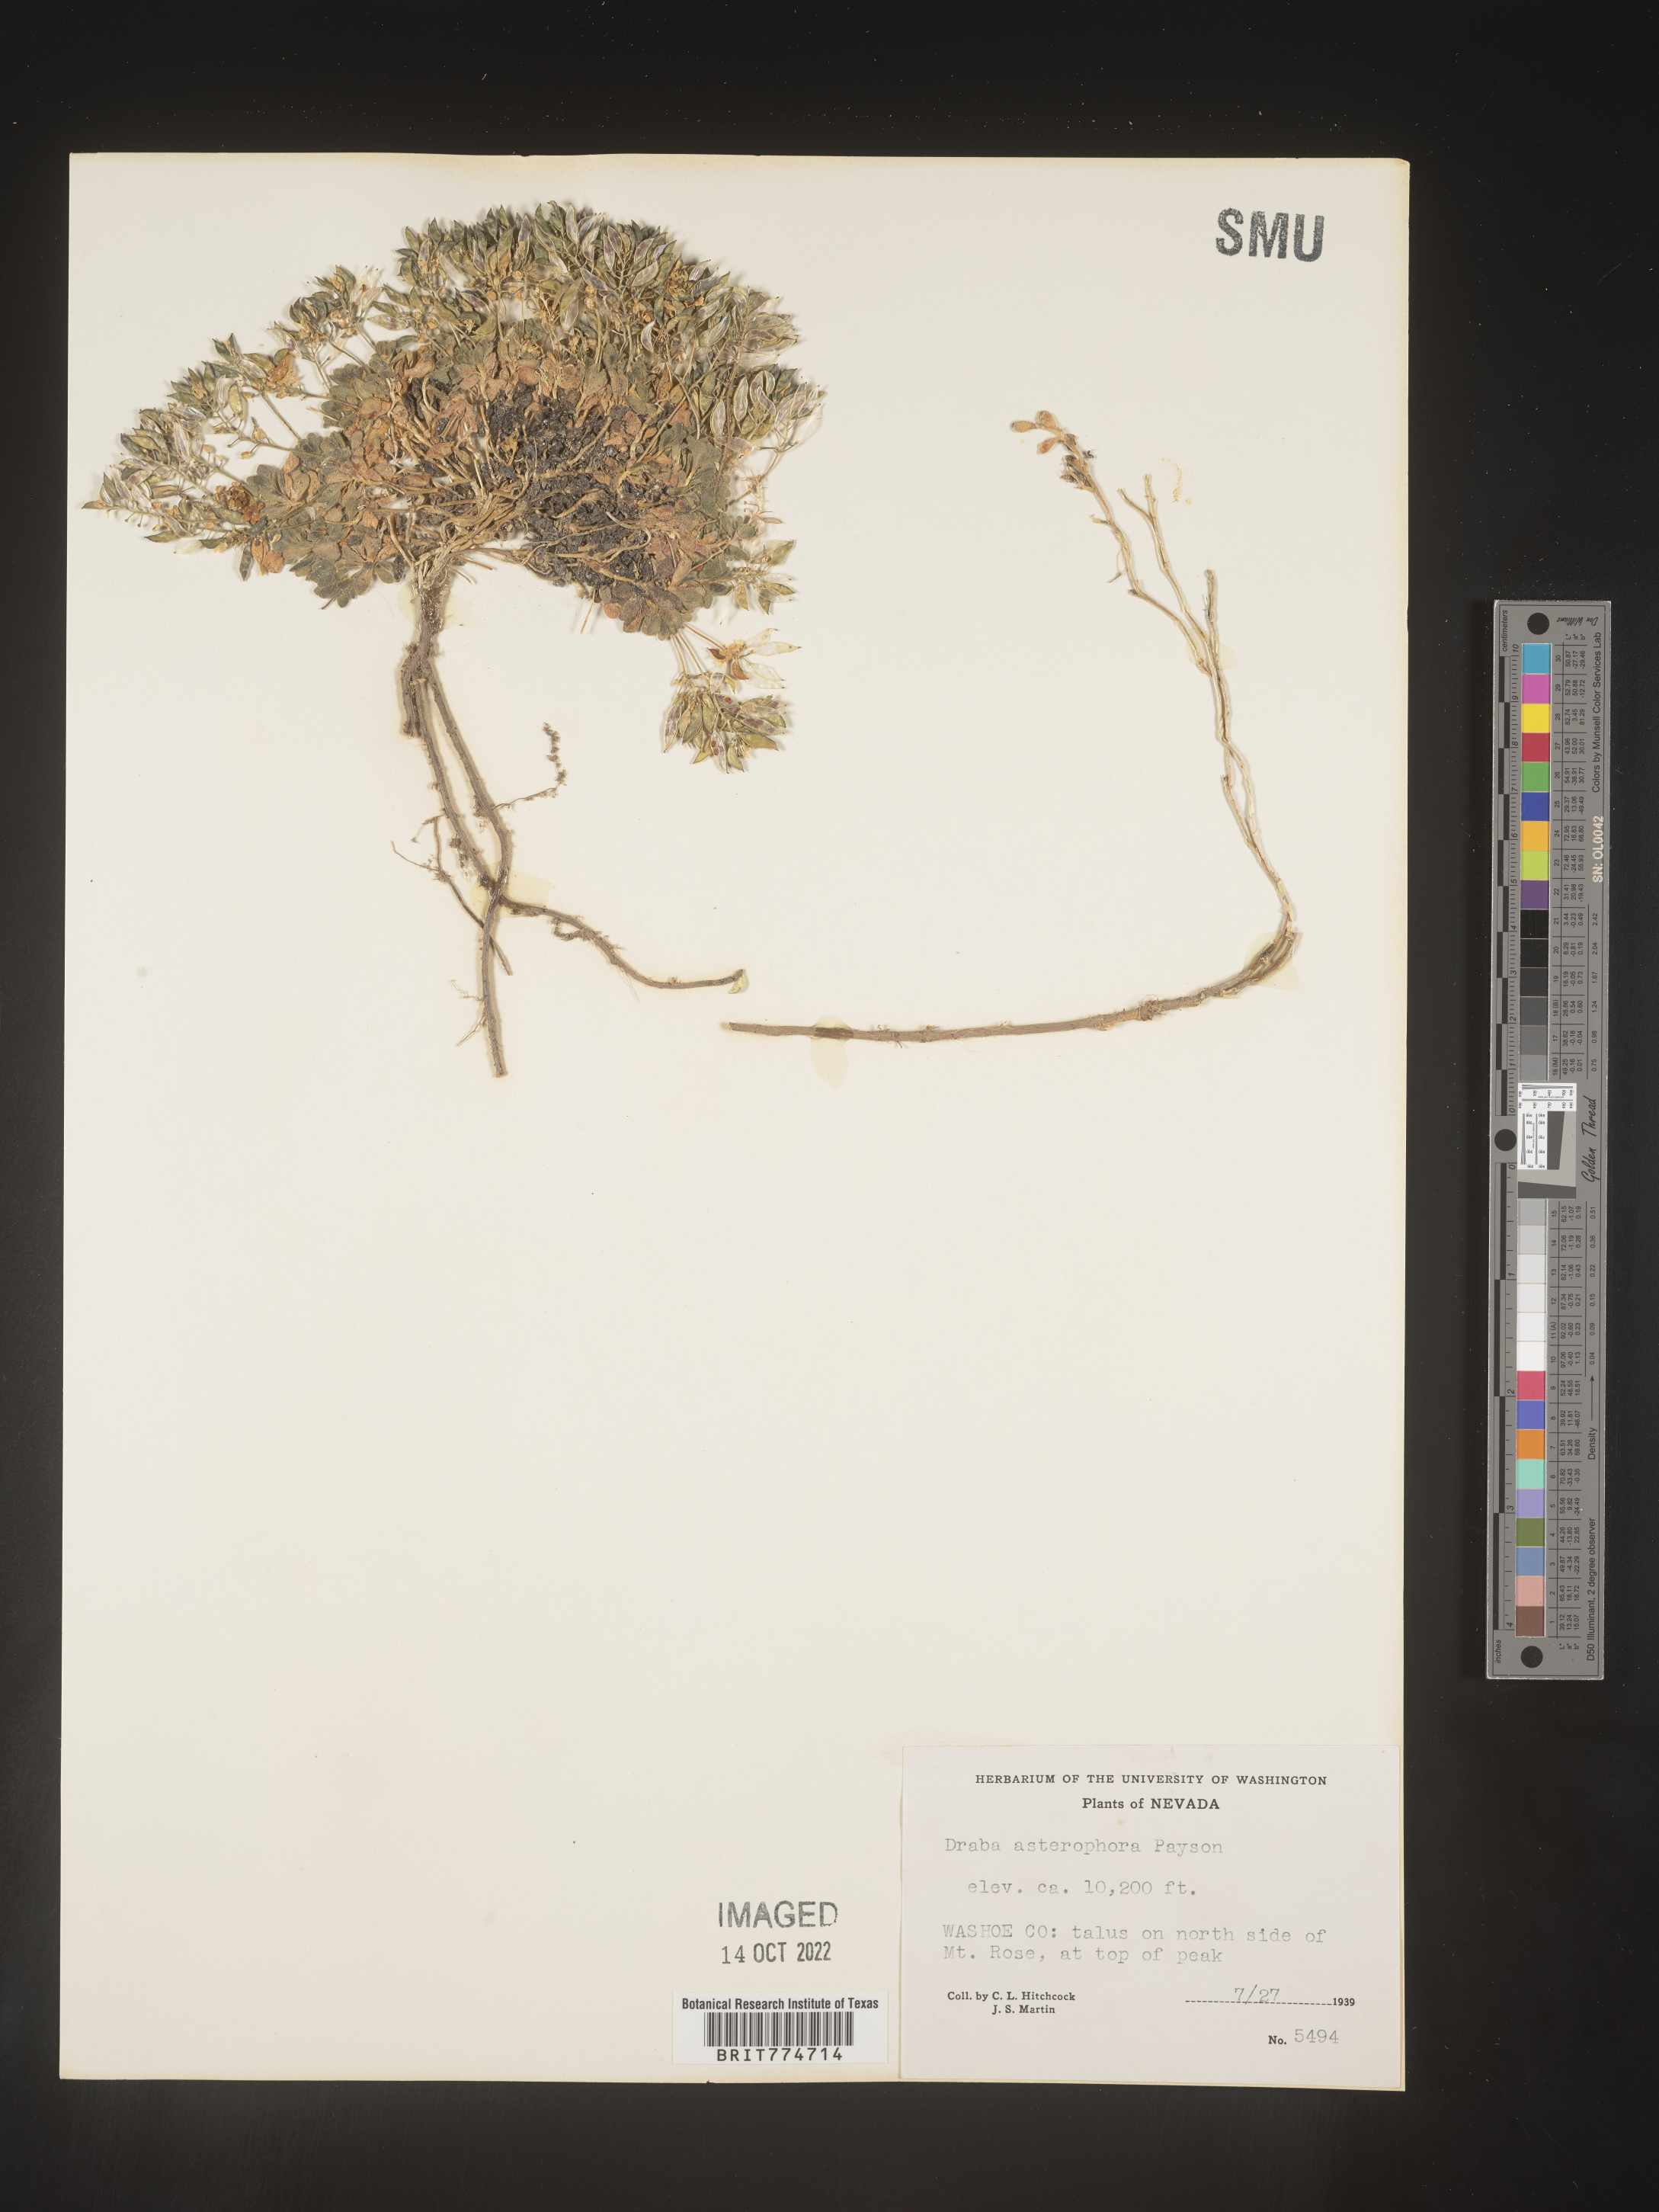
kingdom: Plantae
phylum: Tracheophyta
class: Magnoliopsida
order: Brassicales
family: Brassicaceae
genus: Draba
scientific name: Draba
